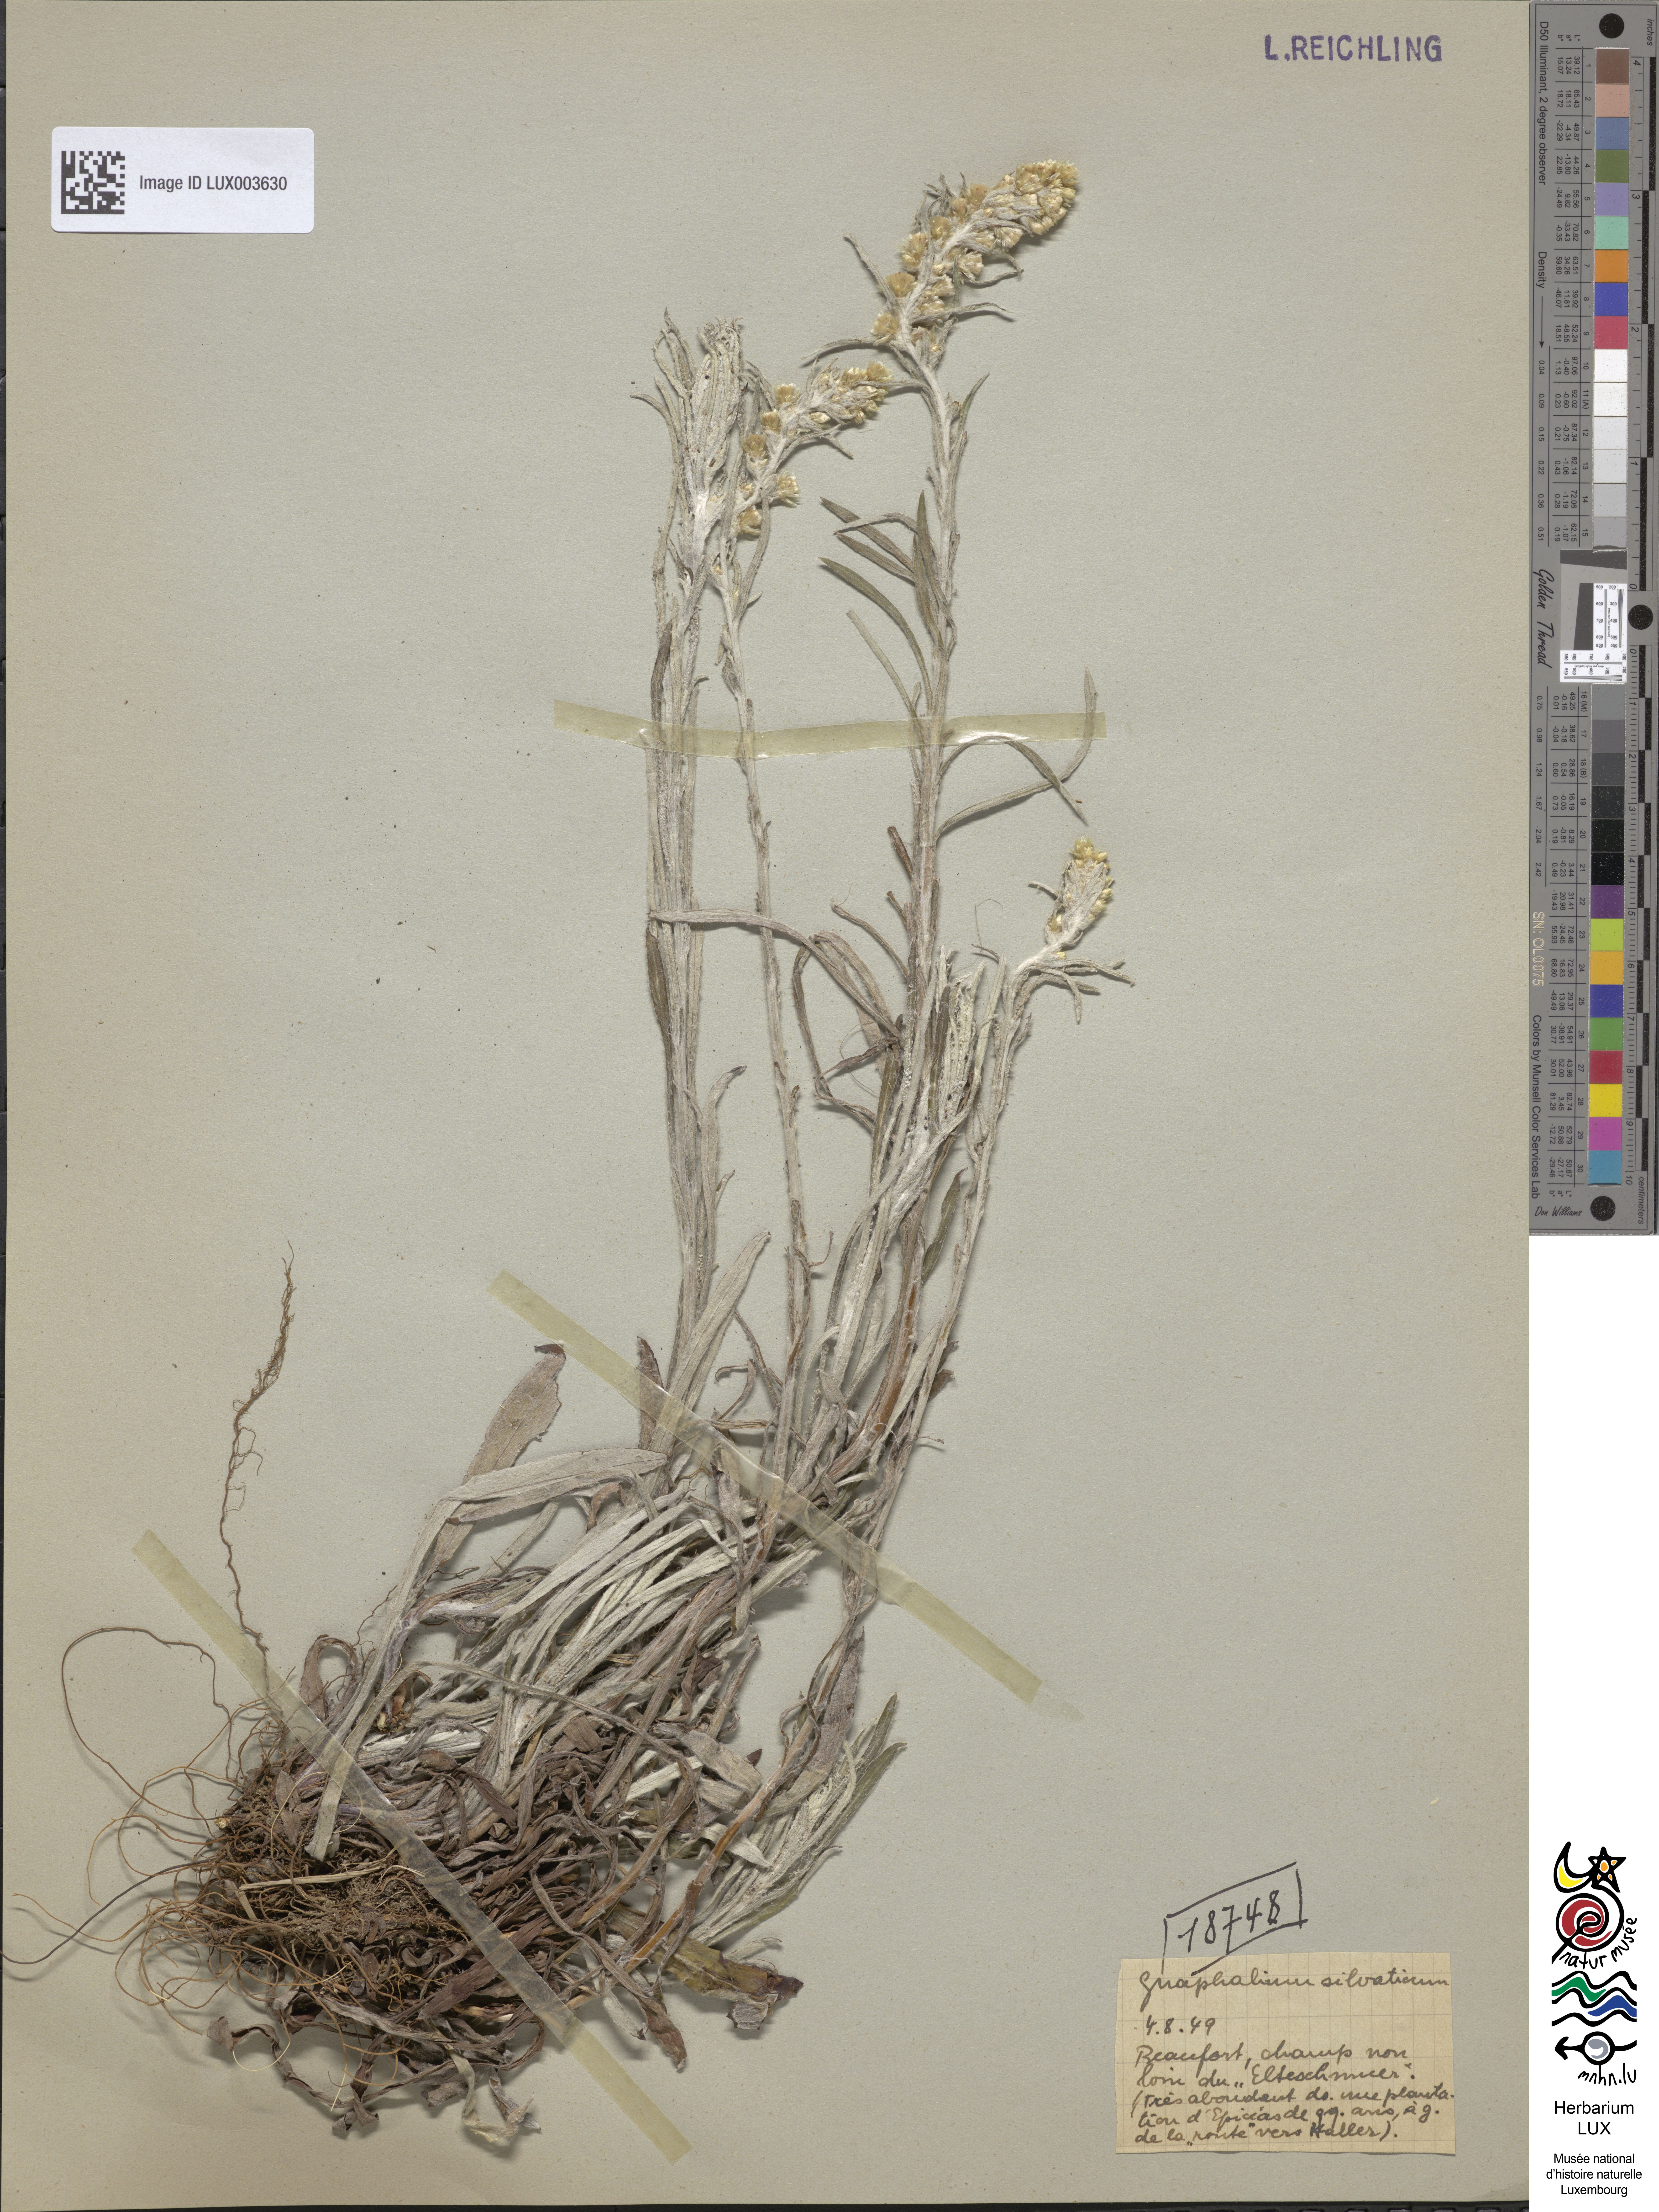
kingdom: Plantae
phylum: Tracheophyta
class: Magnoliopsida
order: Asterales
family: Asteraceae
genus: Omalotheca
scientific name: Omalotheca sylvatica
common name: Heath cudweed
